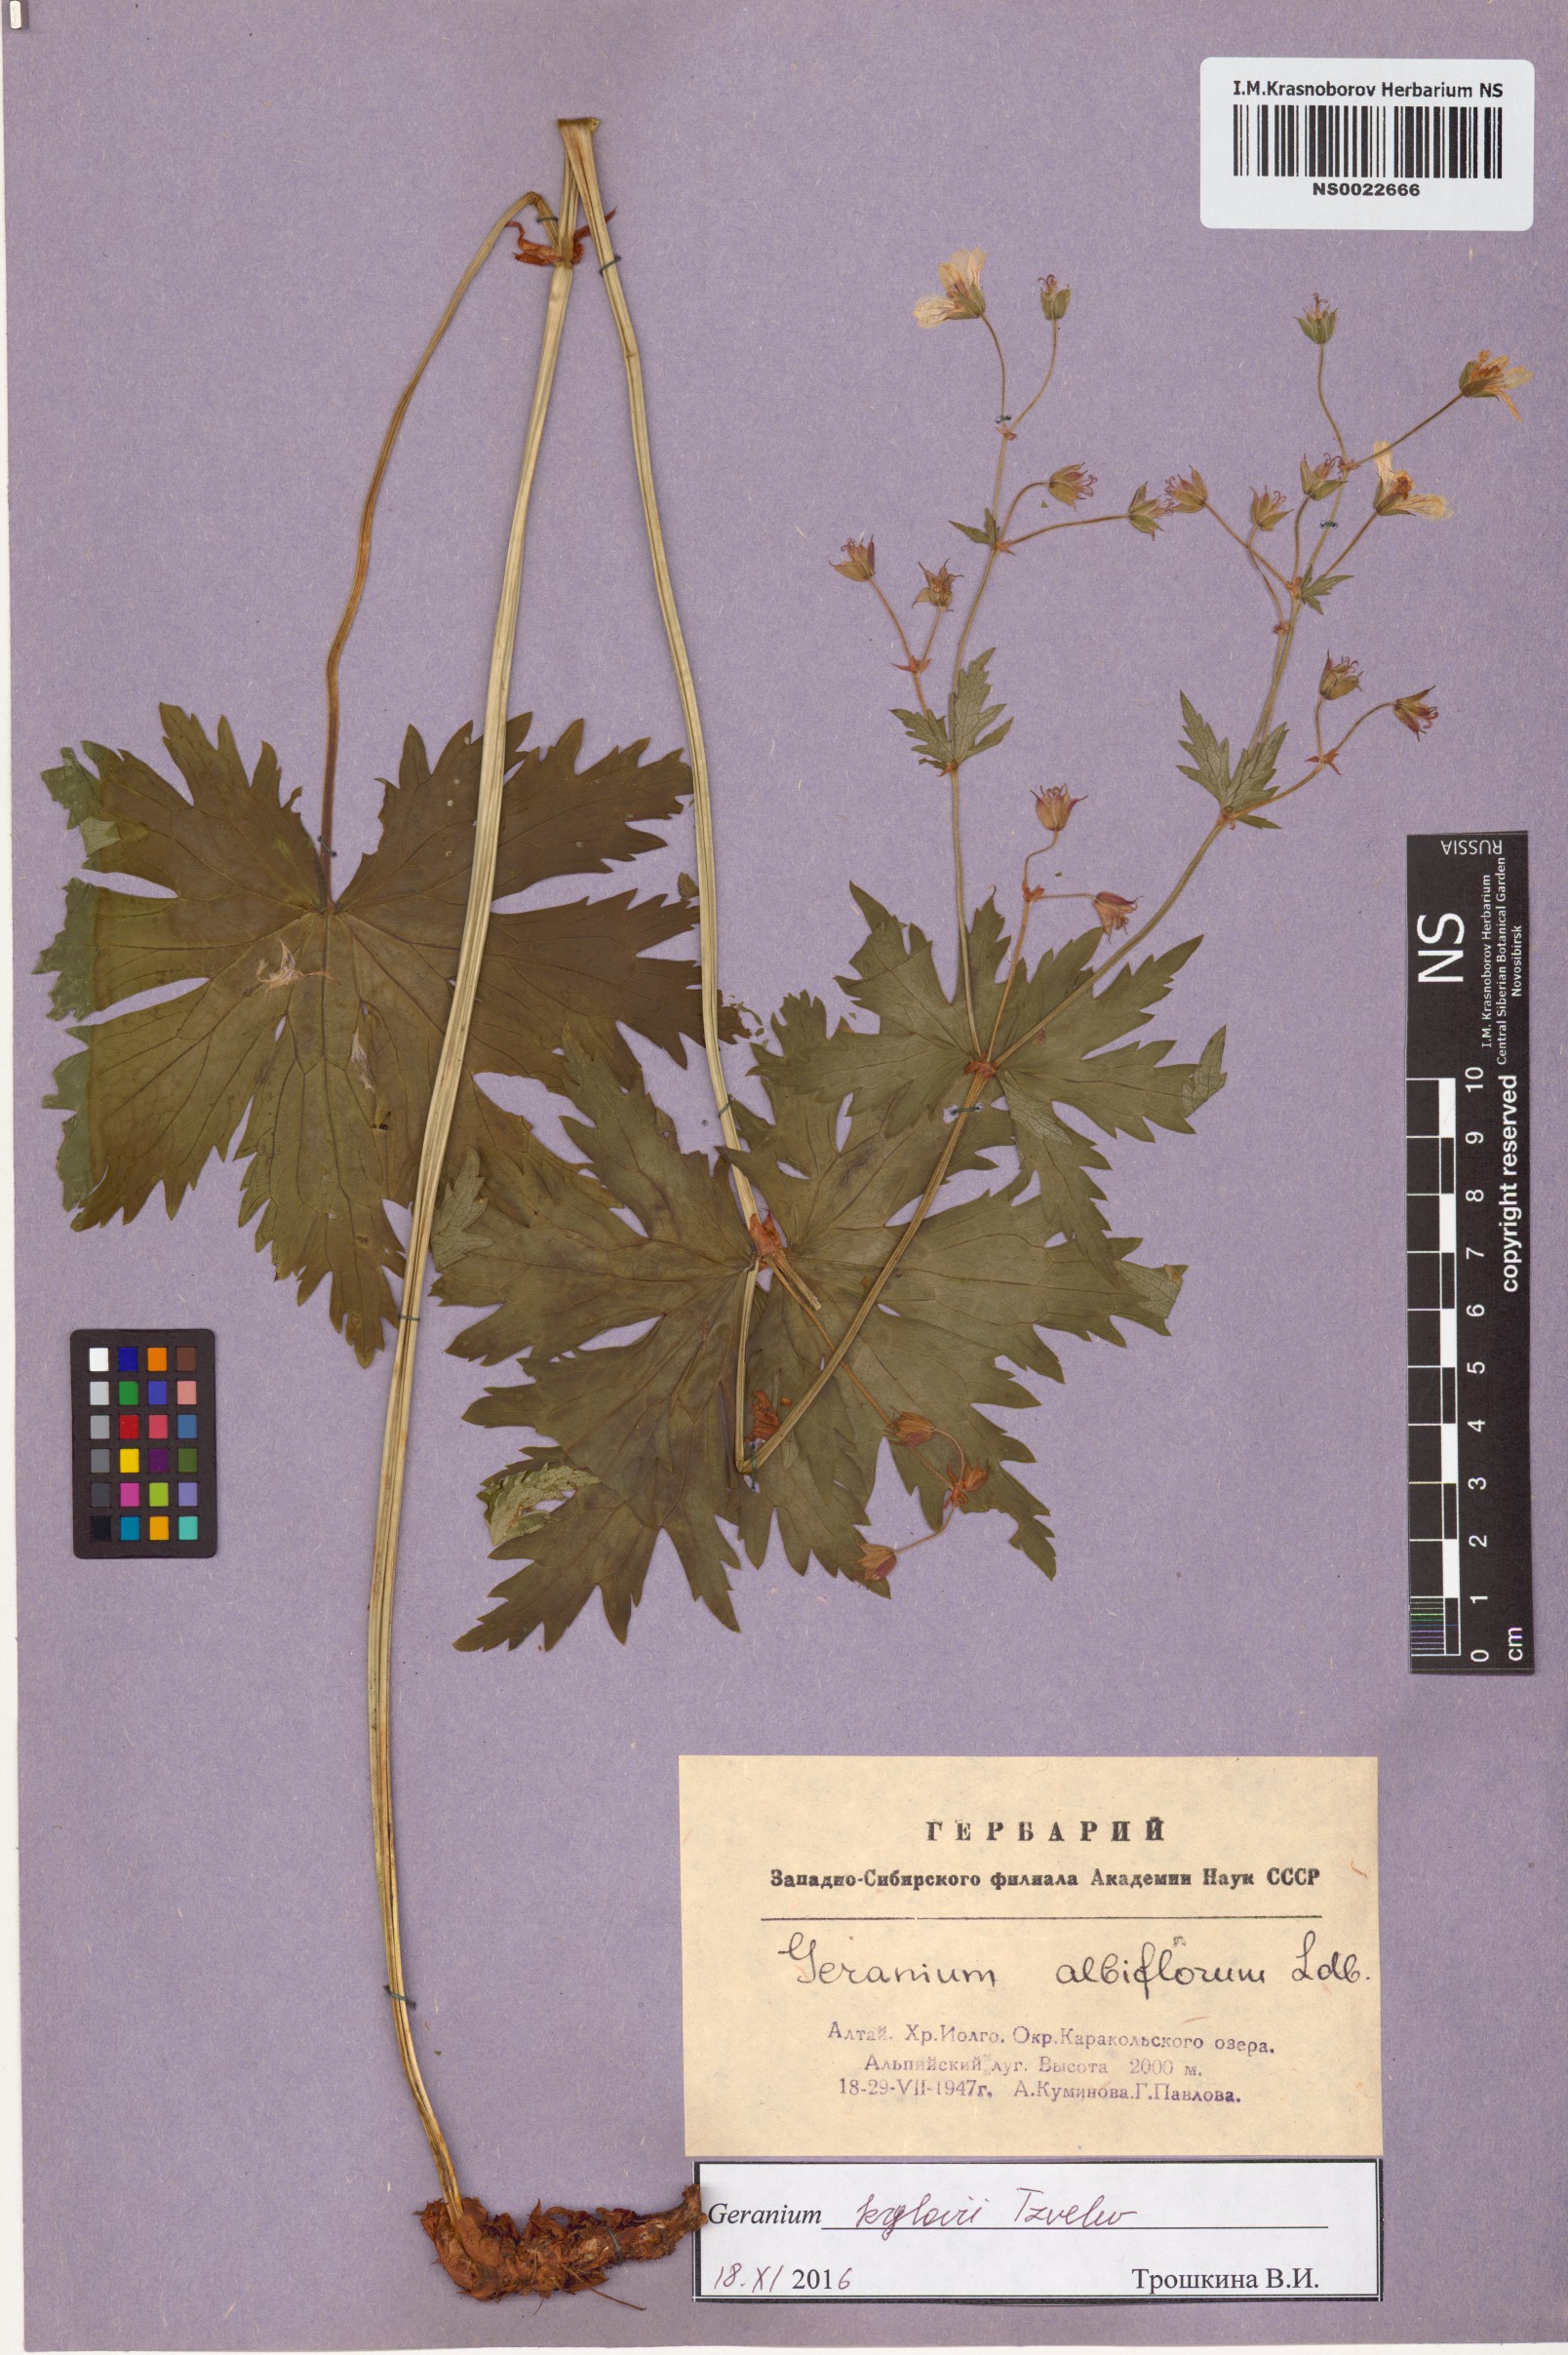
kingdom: Plantae
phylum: Tracheophyta
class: Magnoliopsida
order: Geraniales
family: Geraniaceae
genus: Geranium
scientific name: Geranium sylvaticum
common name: Wood crane's-bill
